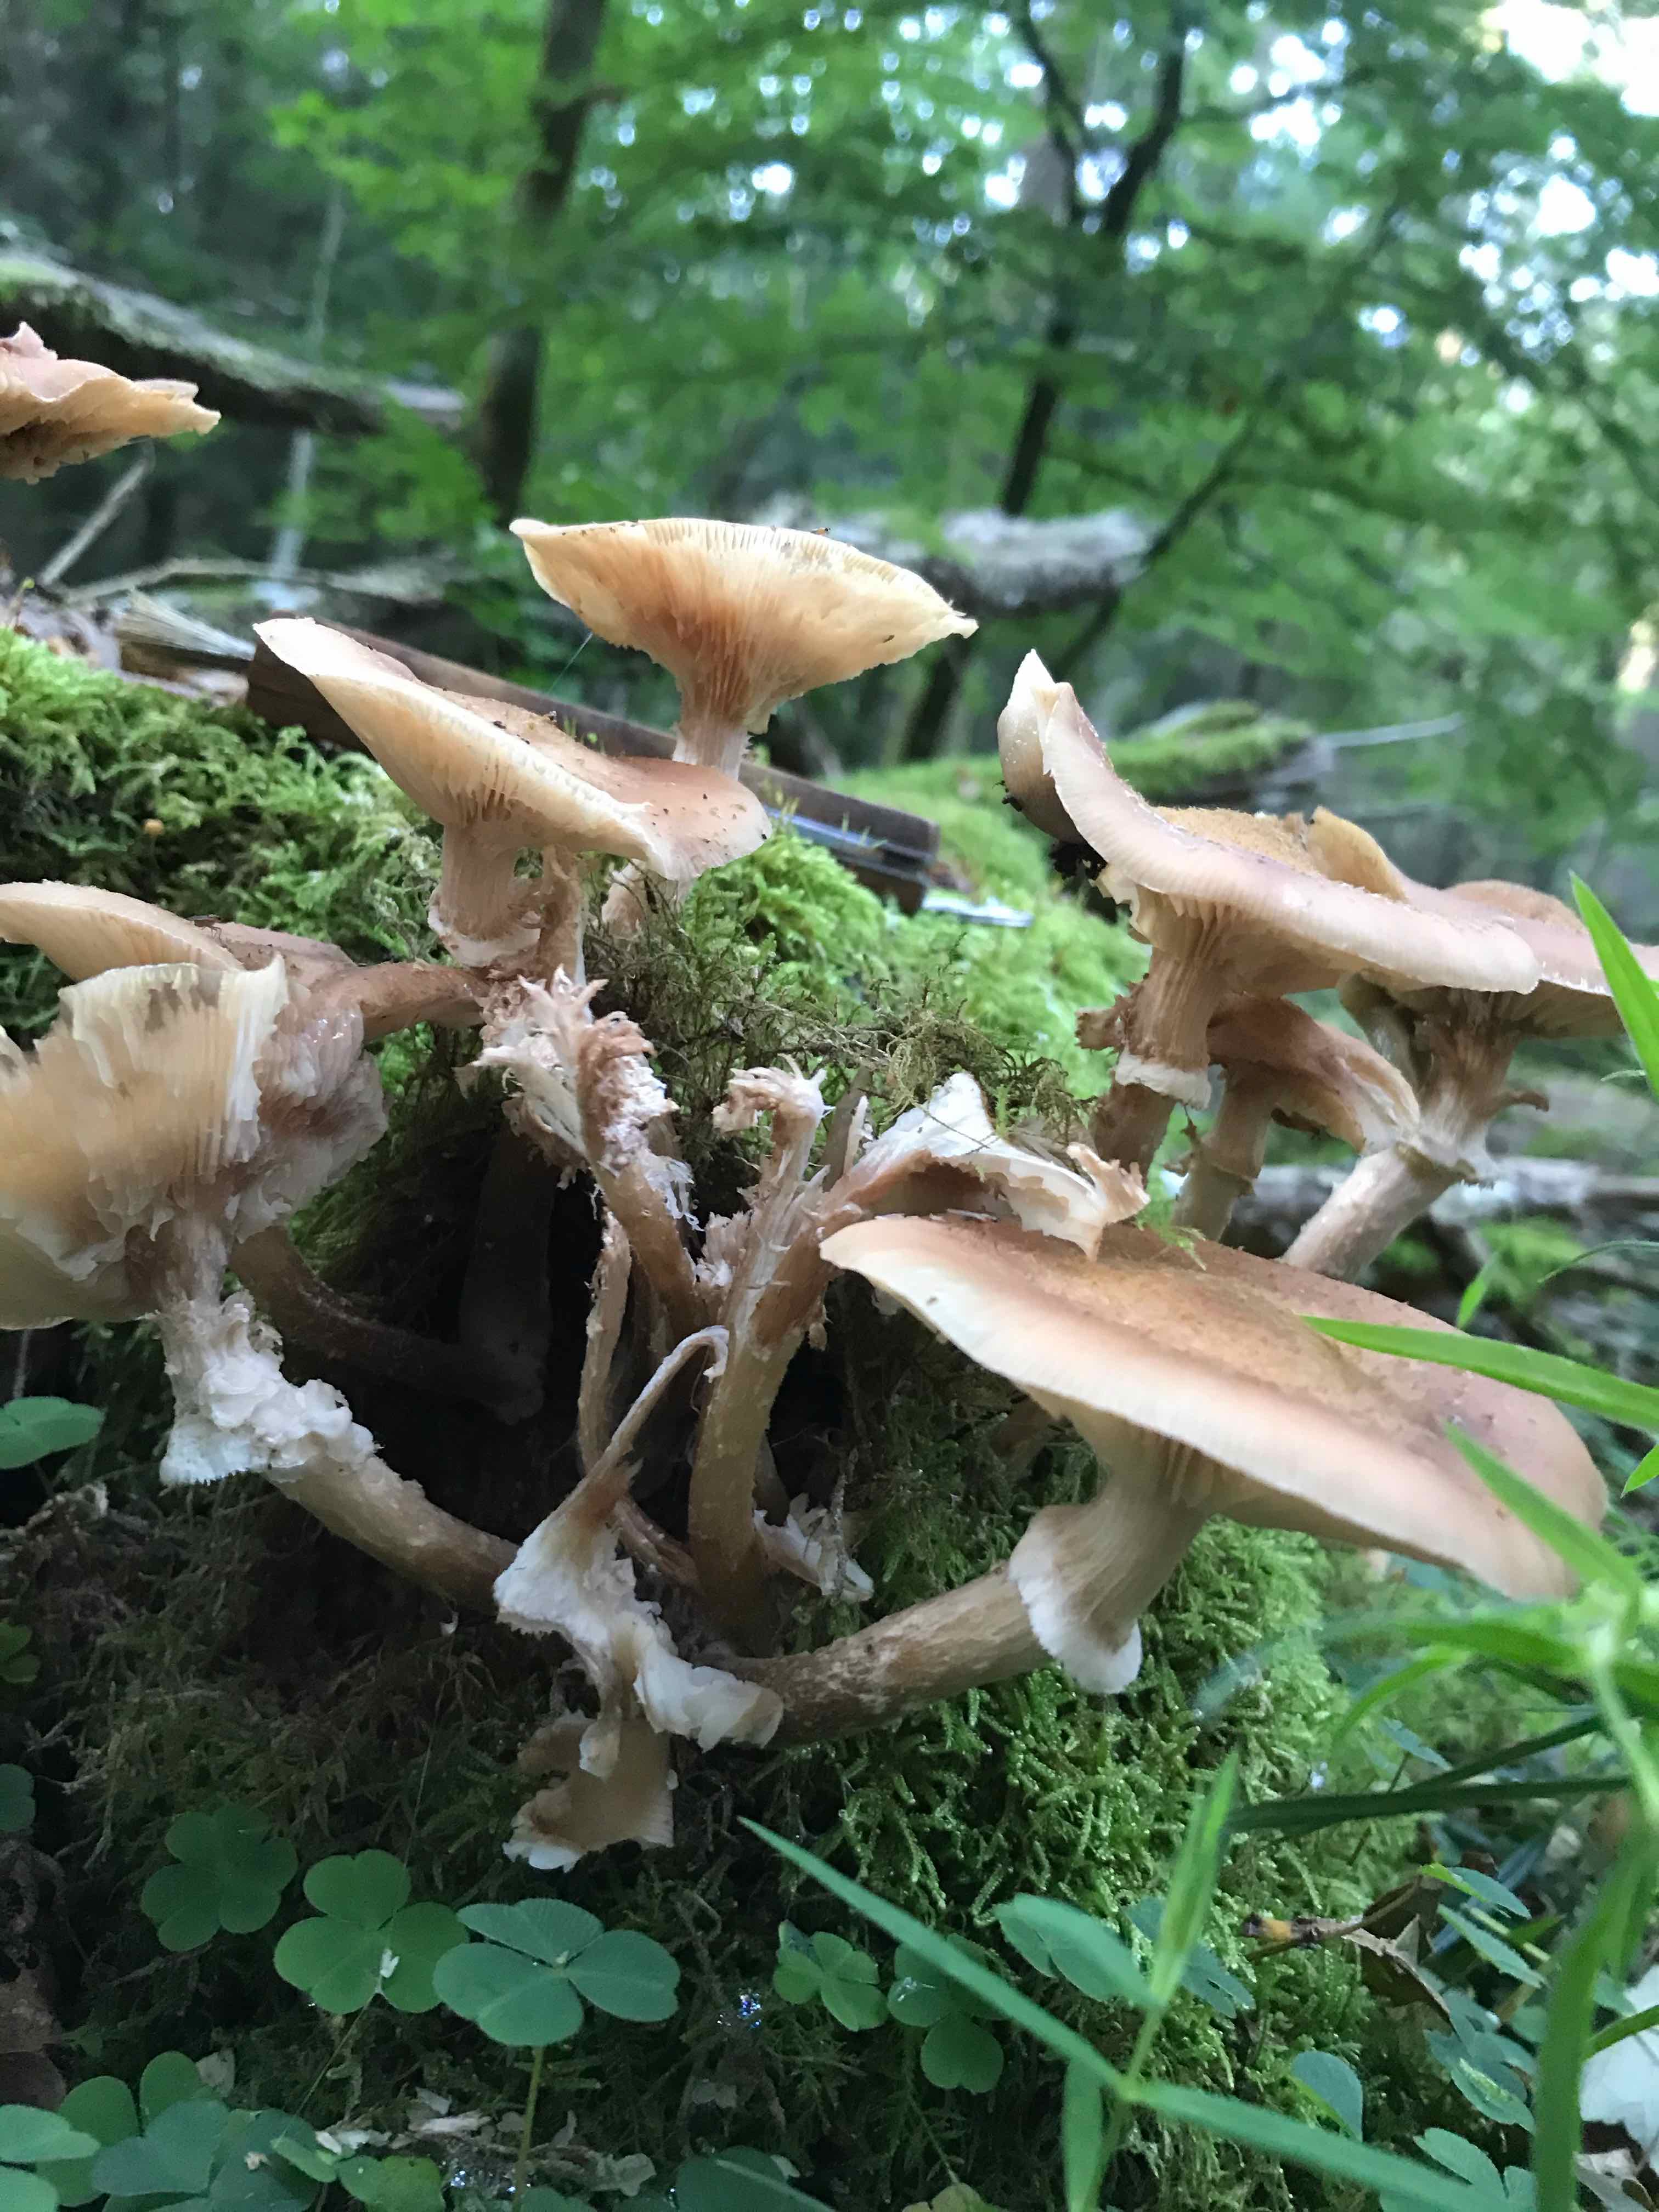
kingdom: Fungi
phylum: Basidiomycota
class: Agaricomycetes
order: Agaricales
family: Physalacriaceae
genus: Armillaria
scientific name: Armillaria ostoyae
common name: mørk honningsvamp
